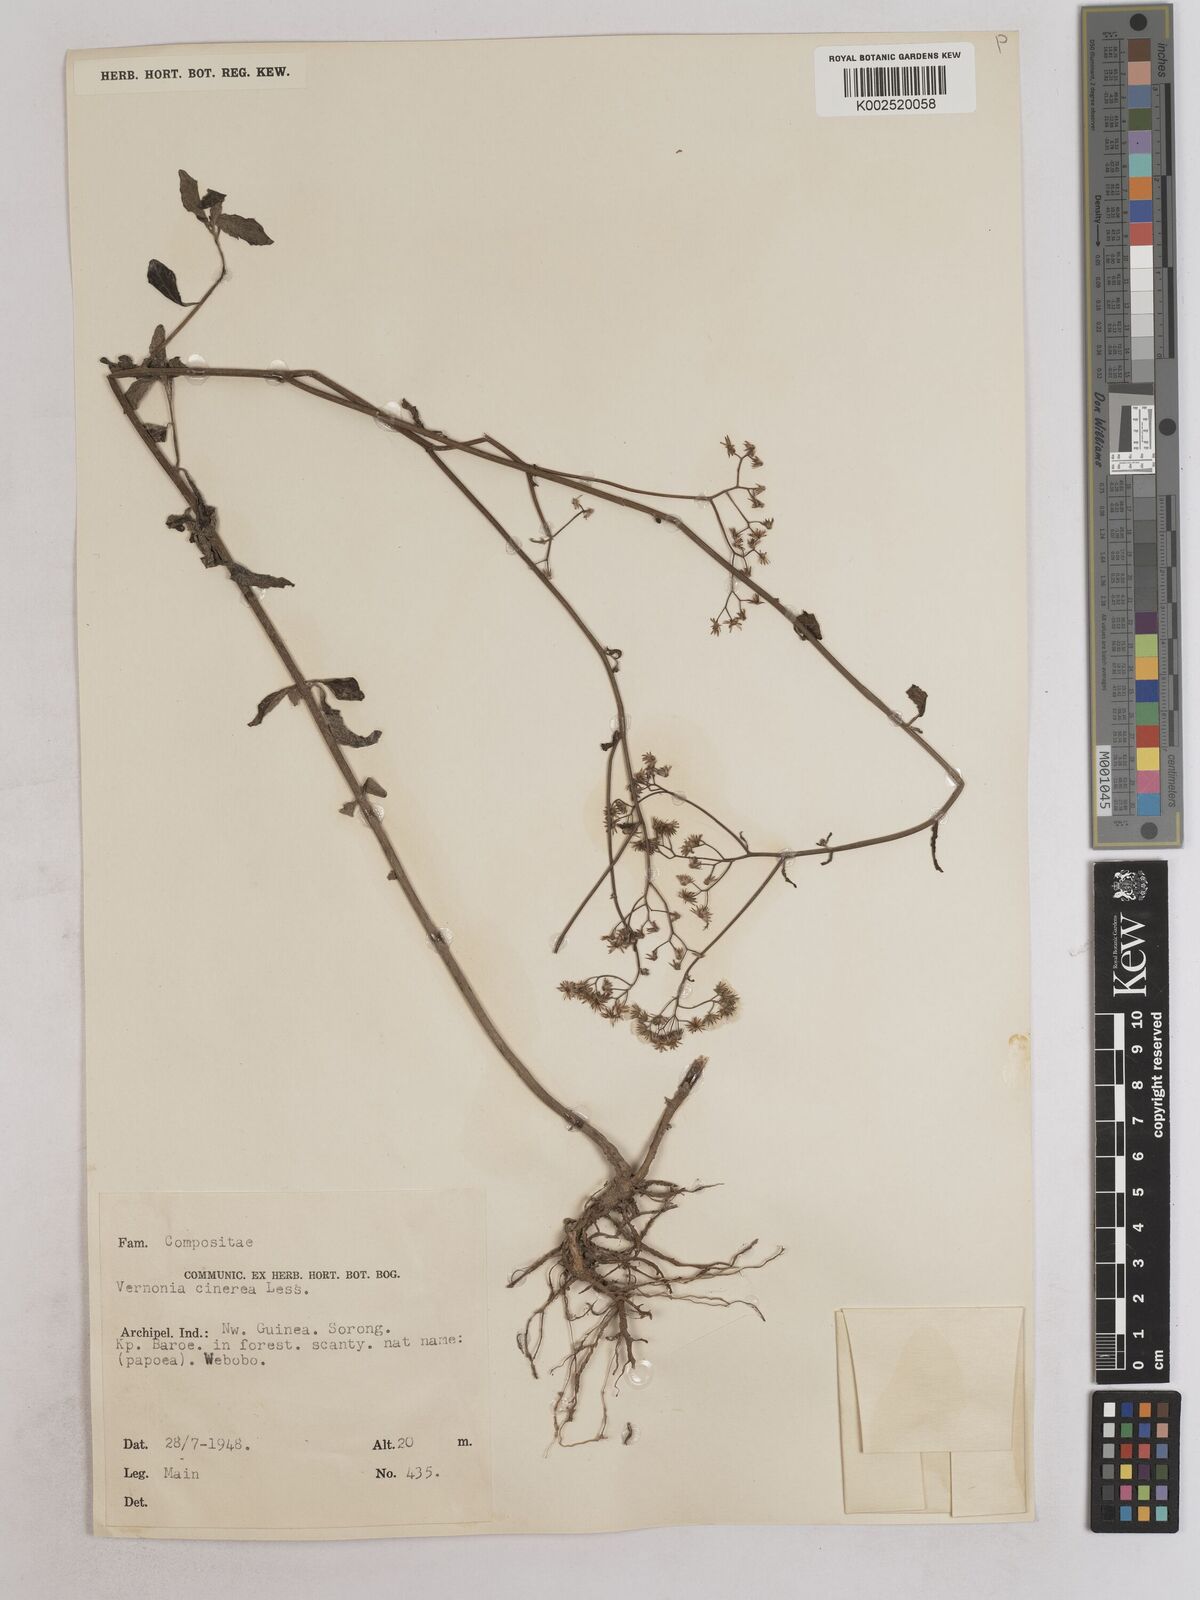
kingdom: Plantae
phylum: Tracheophyta
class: Magnoliopsida
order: Asterales
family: Asteraceae
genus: Cyanthillium
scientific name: Cyanthillium cinereum
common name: Little ironweed
